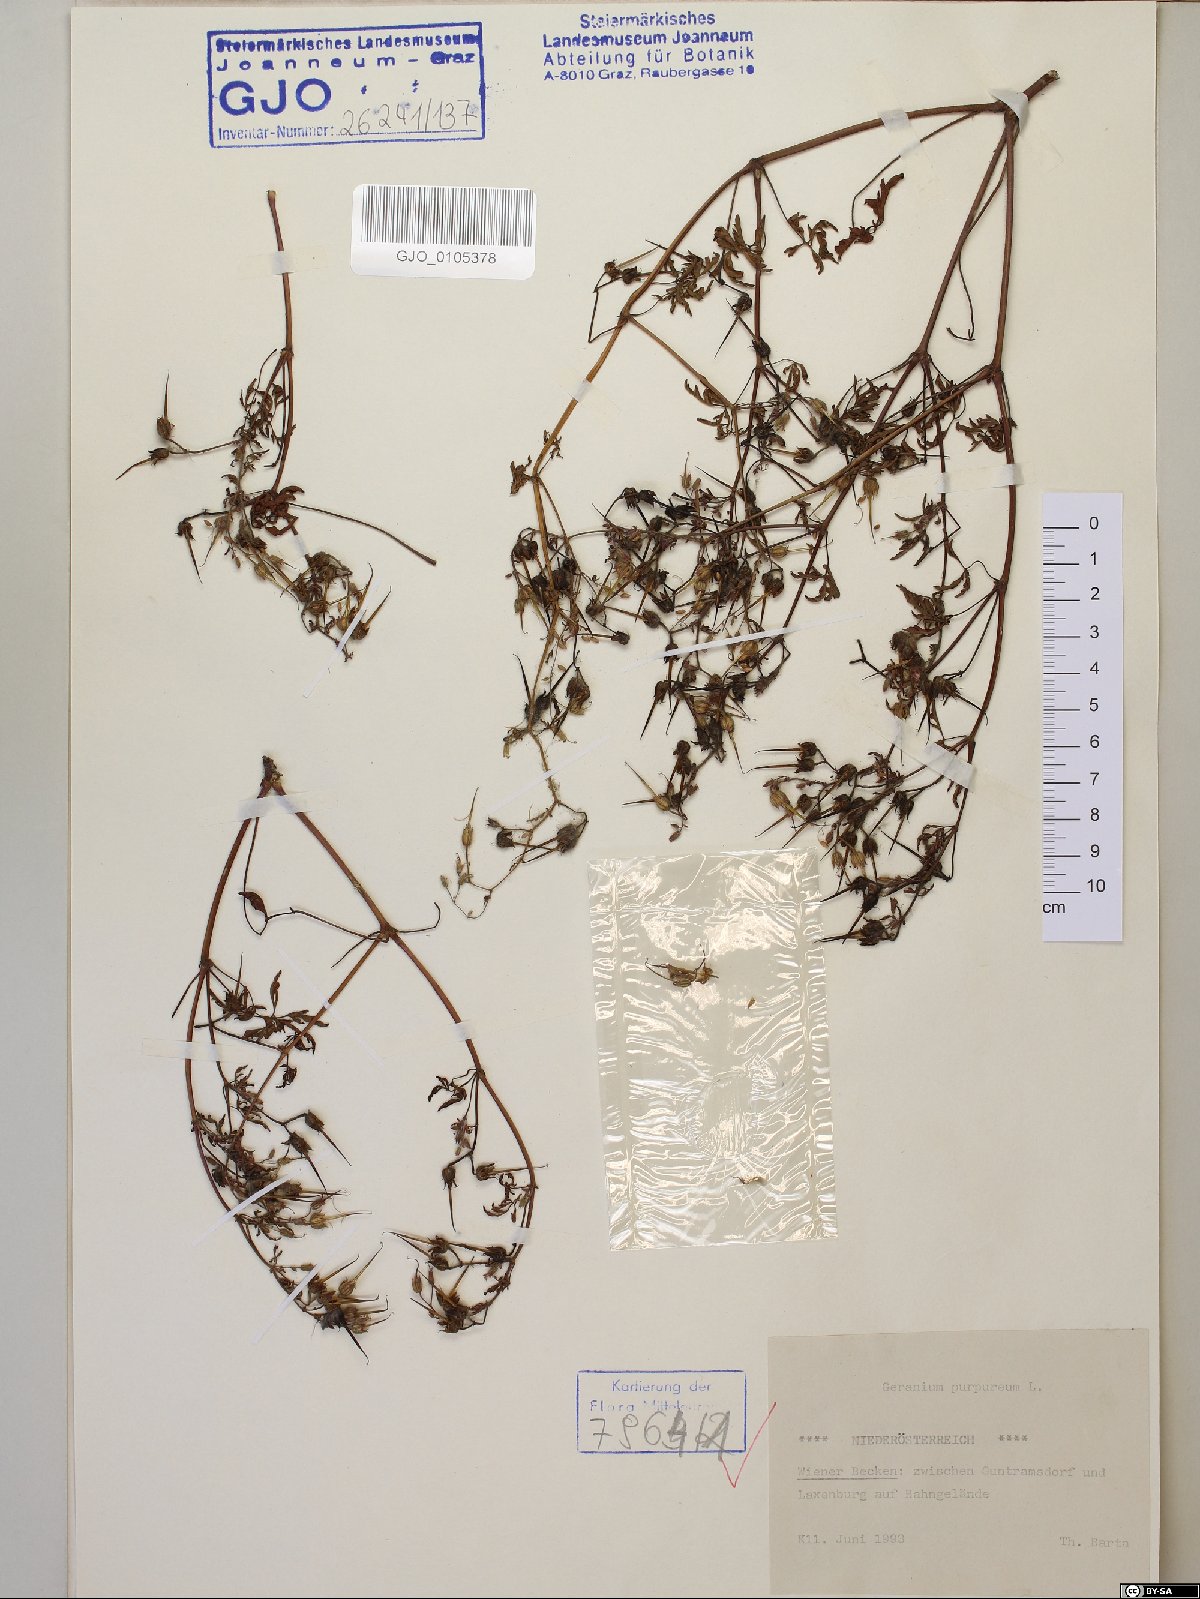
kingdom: Plantae
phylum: Tracheophyta
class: Magnoliopsida
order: Geraniales
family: Geraniaceae
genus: Geranium
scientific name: Geranium purpureum
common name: Little-robin
